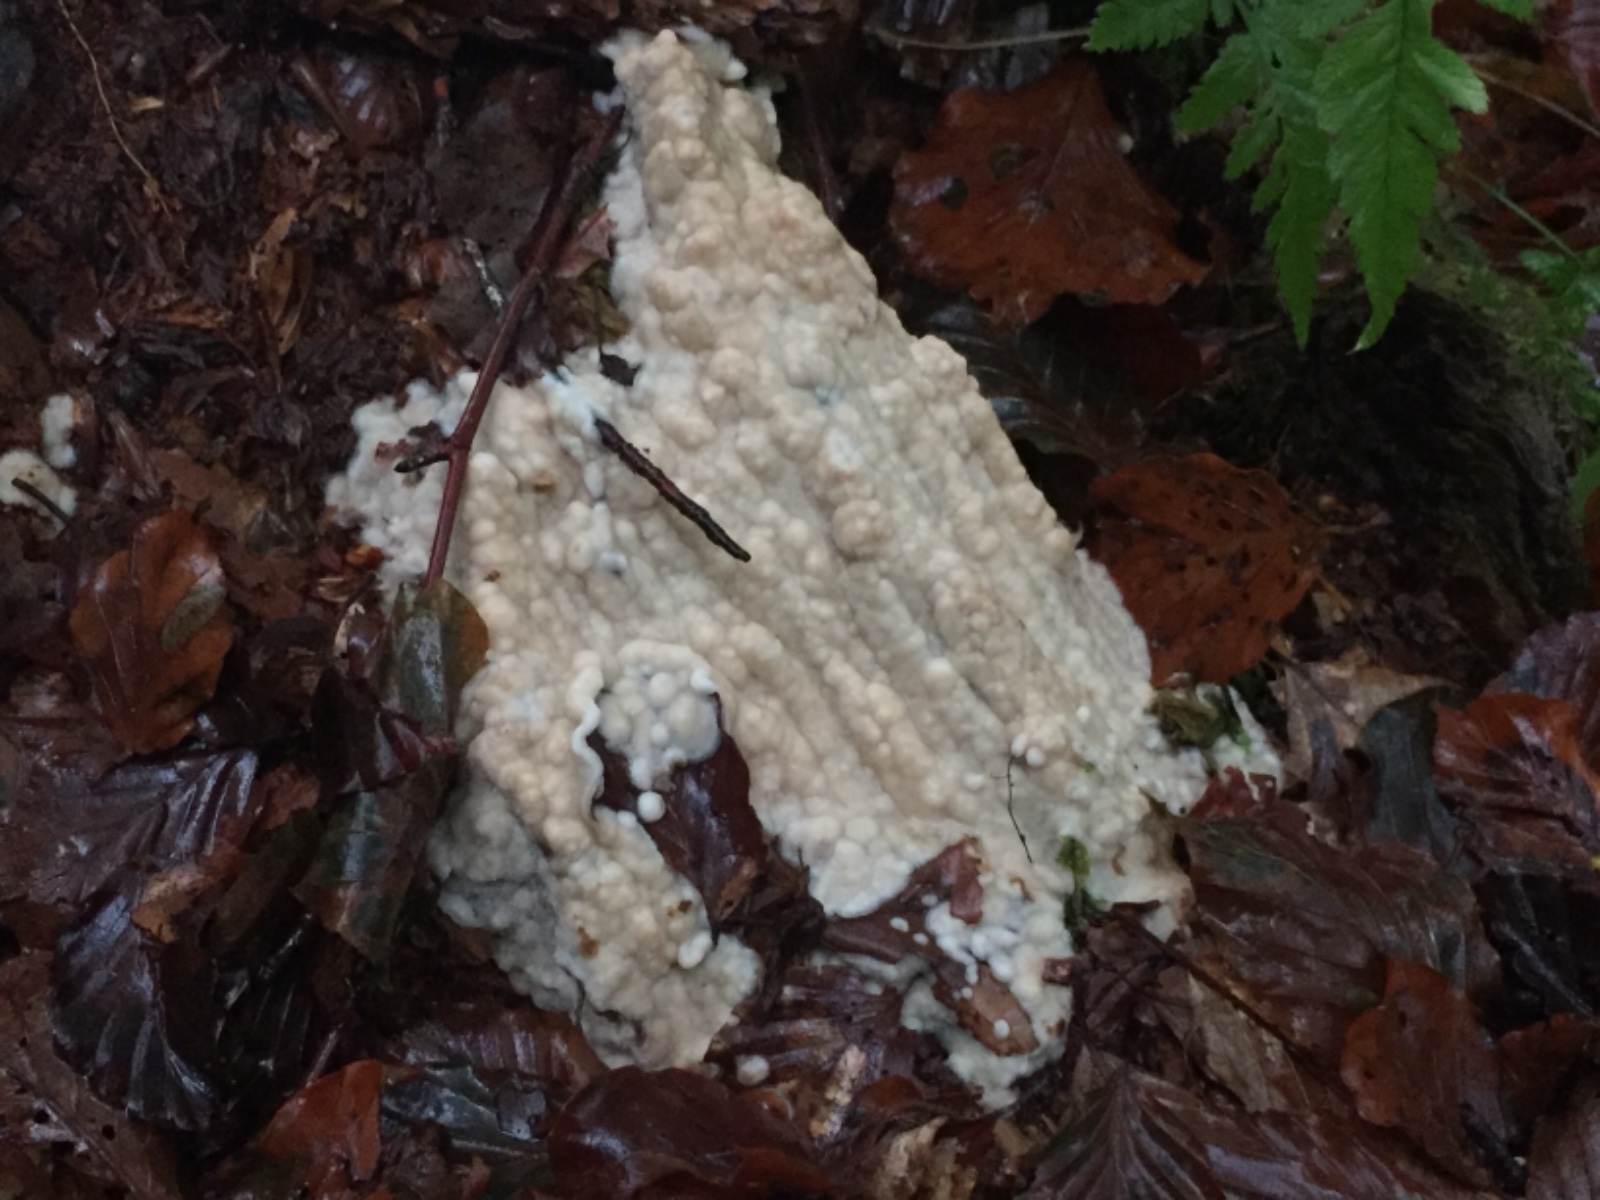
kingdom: Fungi
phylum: Basidiomycota
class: Agaricomycetes
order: Polyporales
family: Meripilaceae
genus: Rigidoporus
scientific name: Rigidoporus sanguinolentus
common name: blod-skorpeporesvamp
